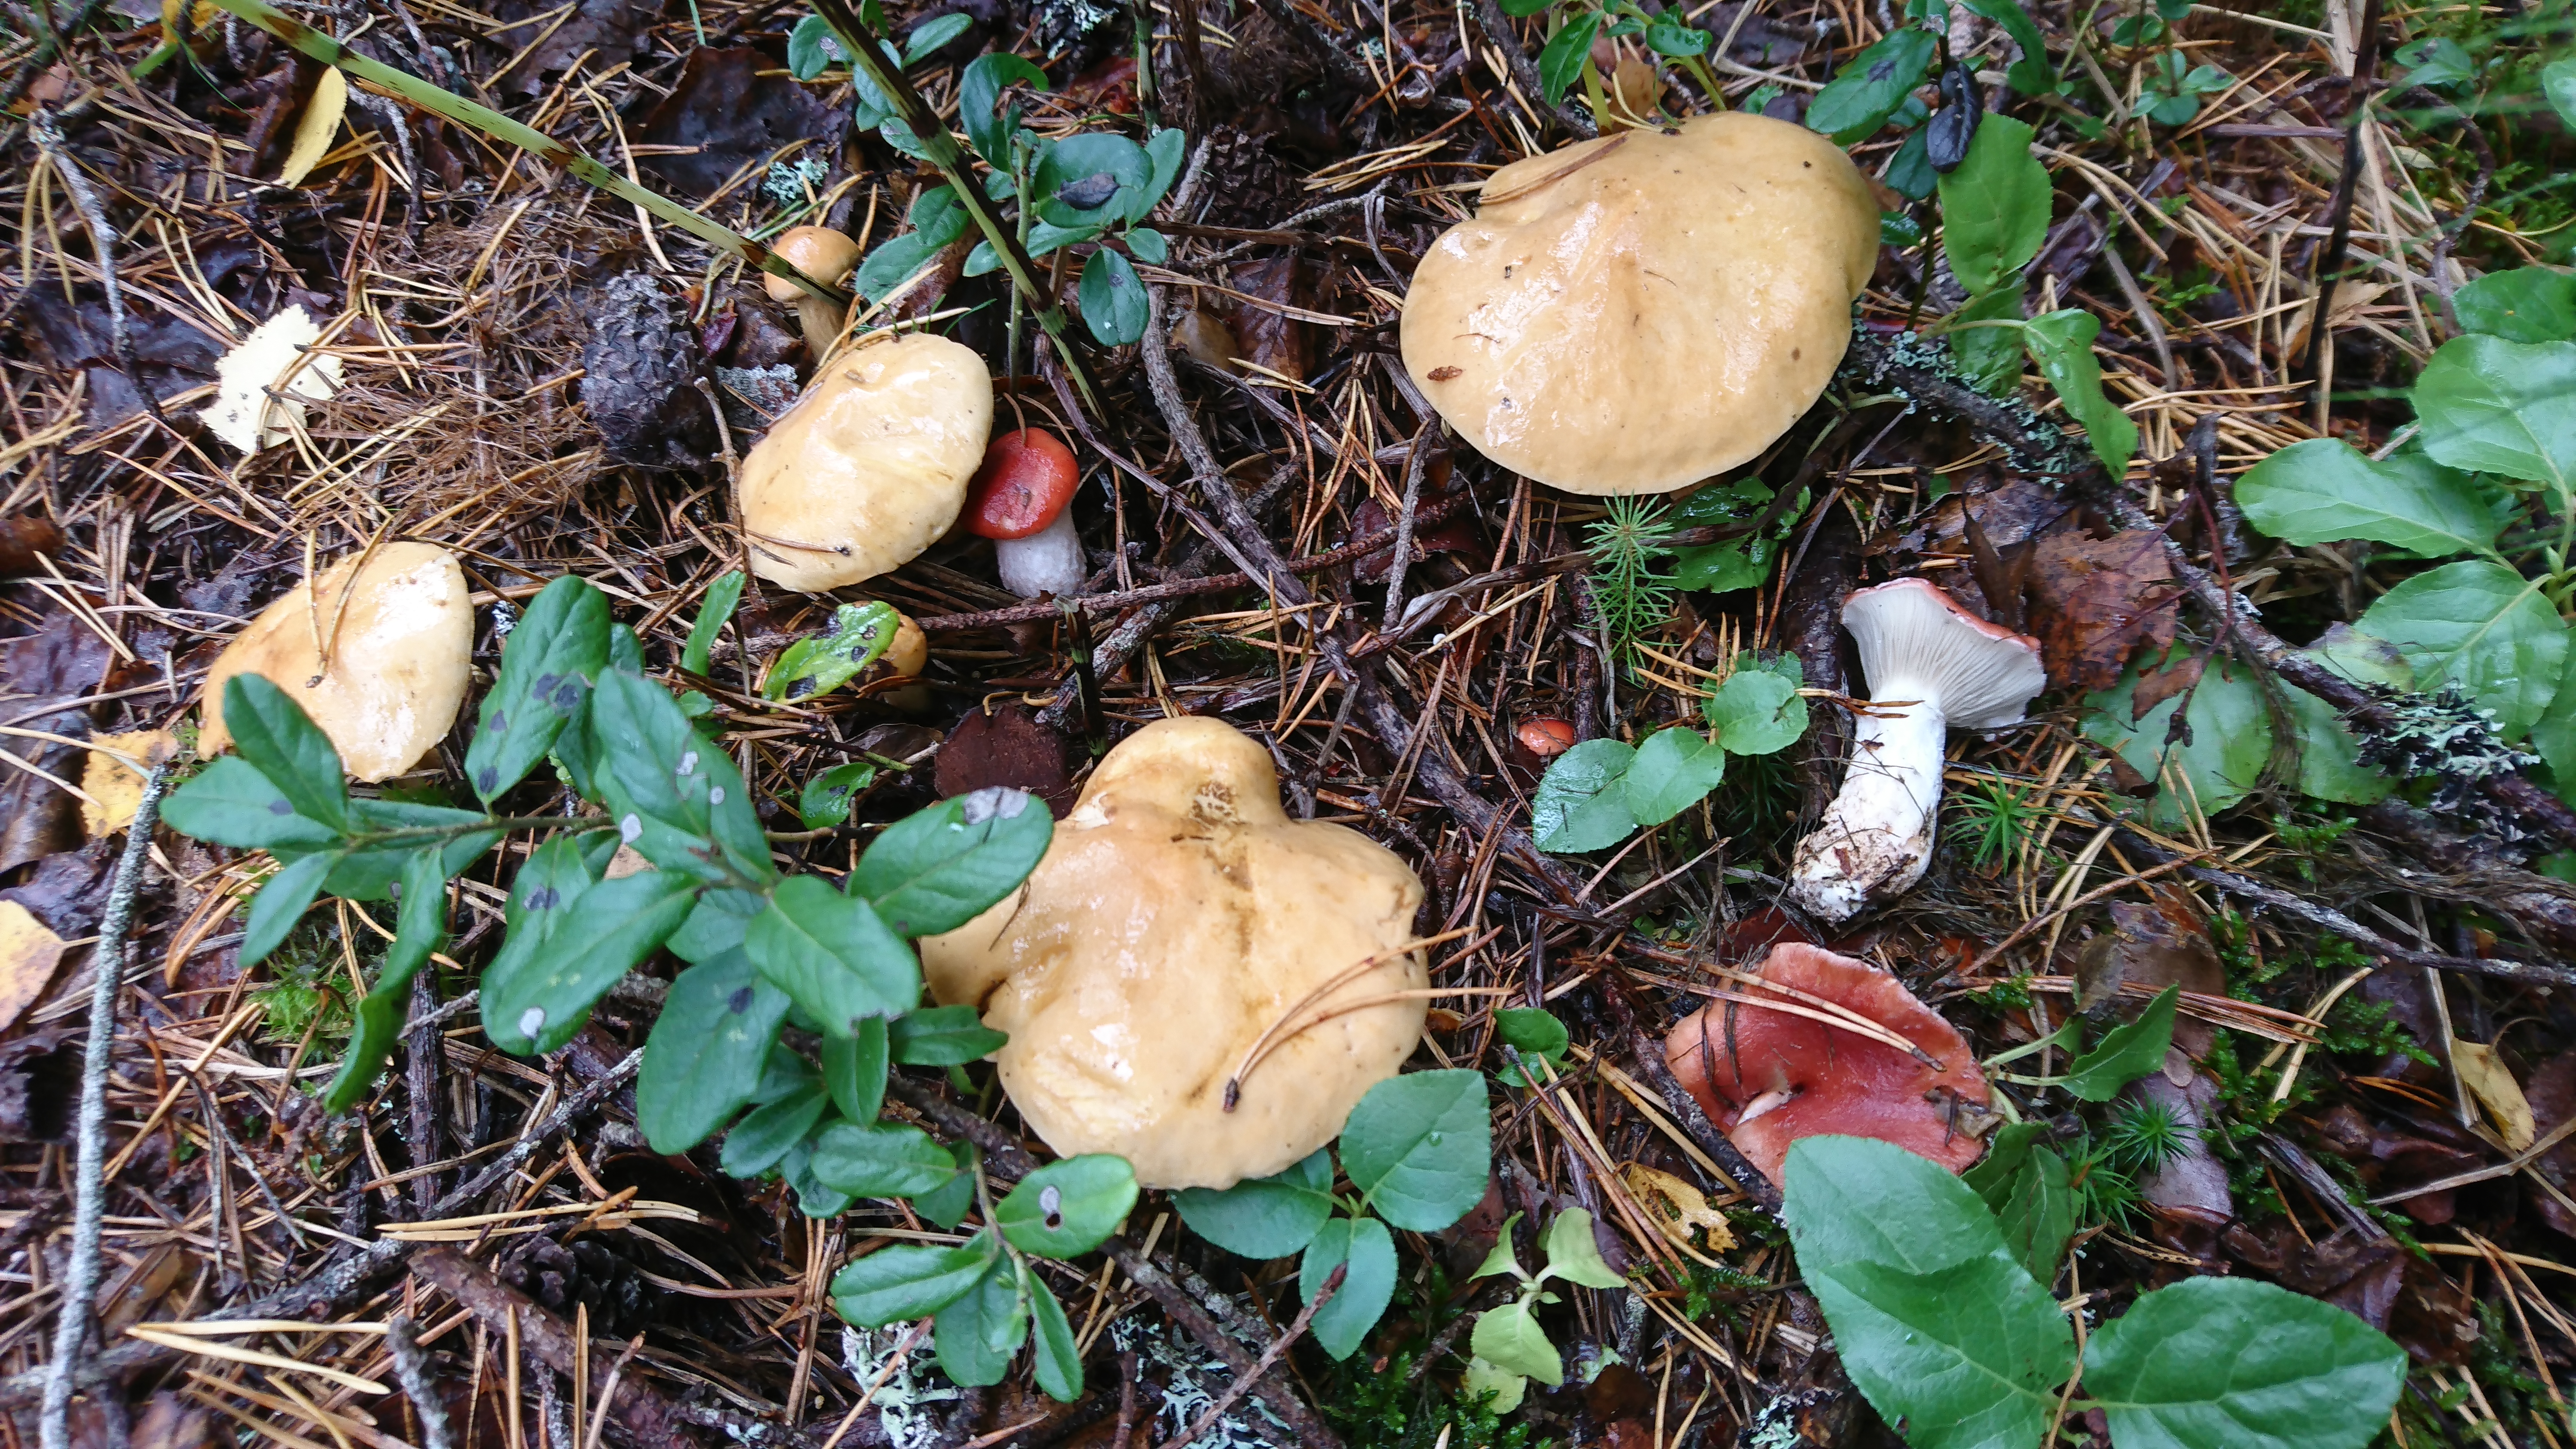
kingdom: Fungi
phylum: Basidiomycota
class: Agaricomycetes
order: Boletales
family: Gomphidiaceae
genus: Gomphidius
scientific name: Gomphidius roseus
